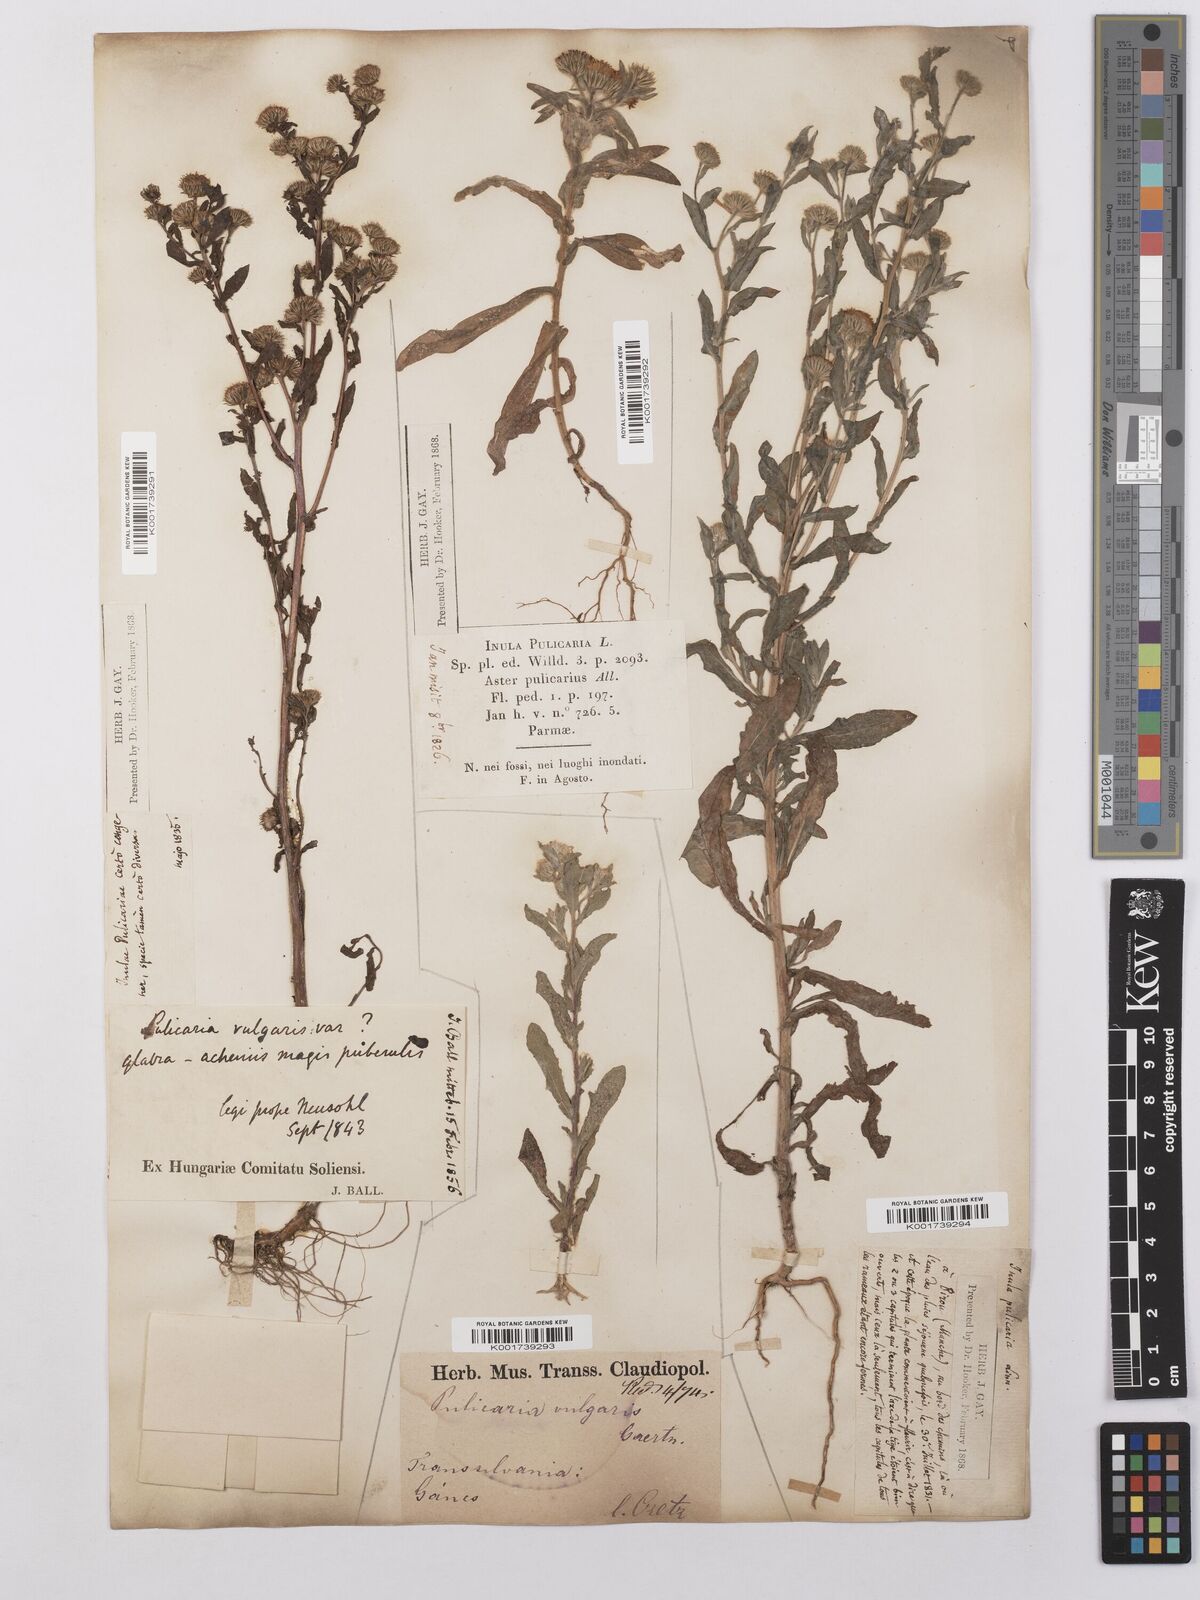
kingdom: Plantae
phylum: Tracheophyta
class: Magnoliopsida
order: Asterales
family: Asteraceae
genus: Pulicaria
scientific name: Pulicaria vulgaris
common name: Small fleabane
